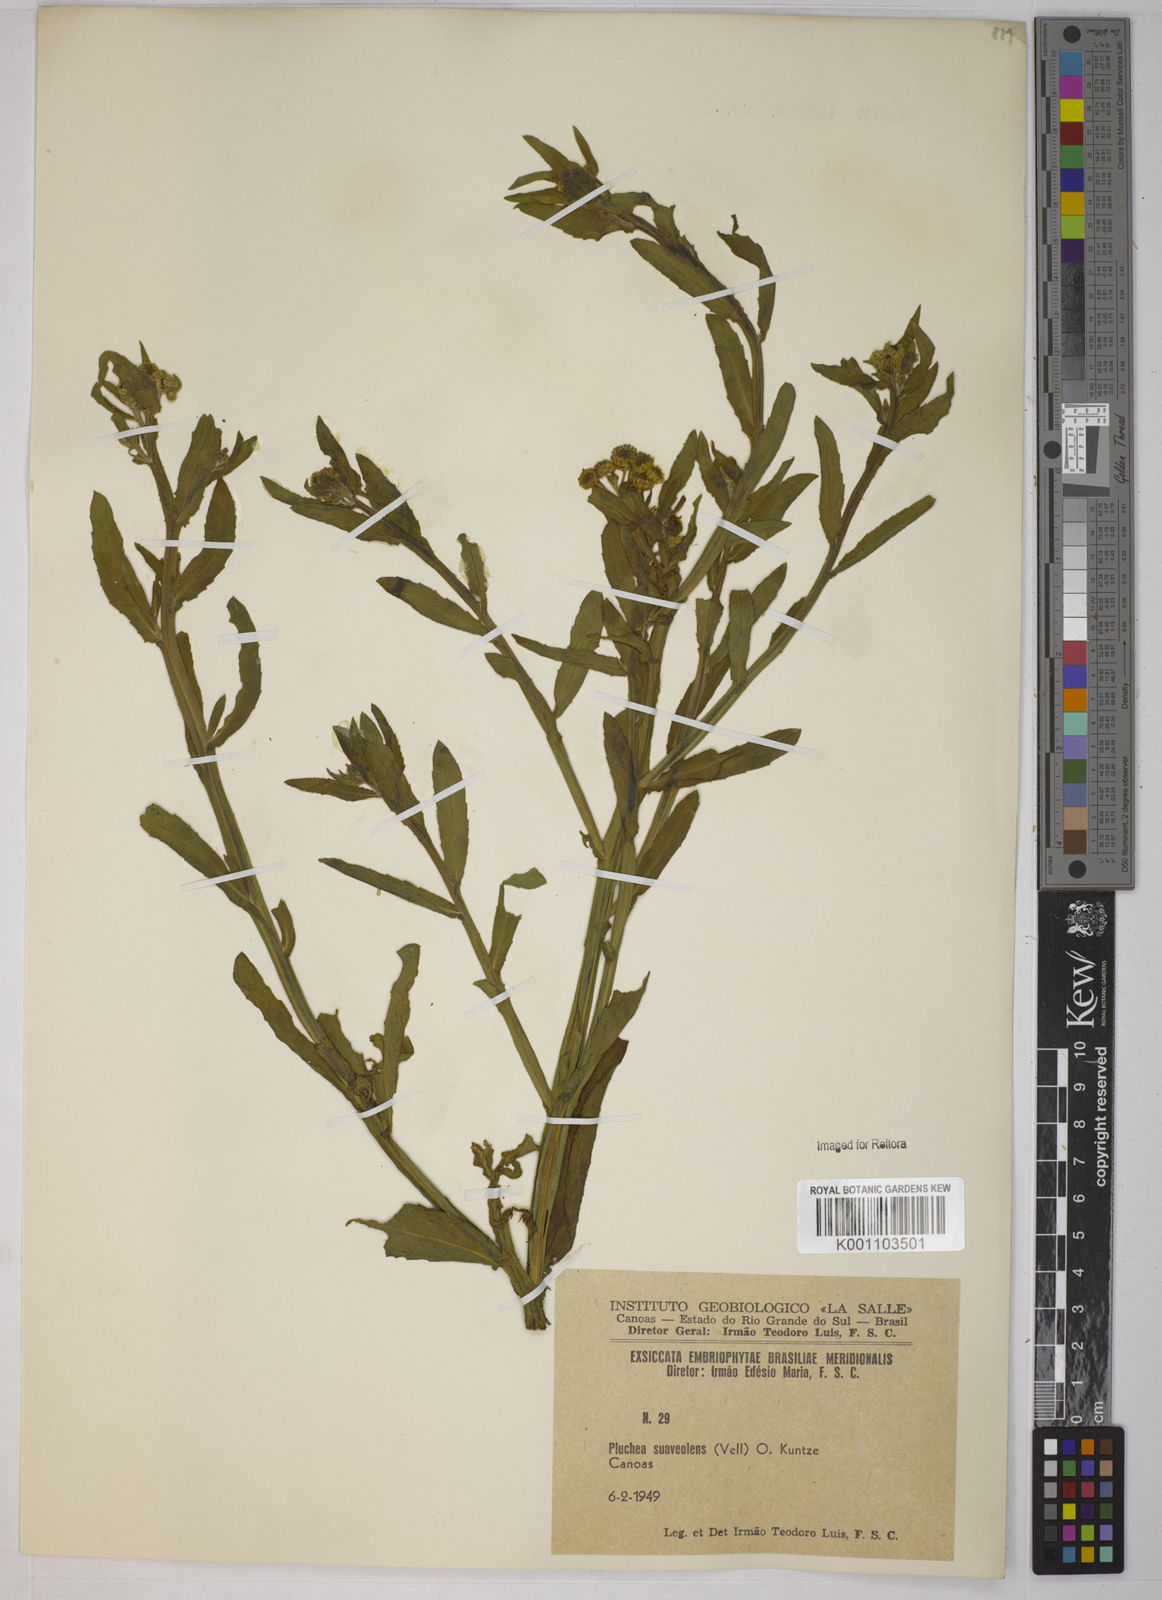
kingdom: Plantae
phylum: Tracheophyta
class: Magnoliopsida
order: Asterales
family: Asteraceae
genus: Pluchea
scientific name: Pluchea sagittalis
